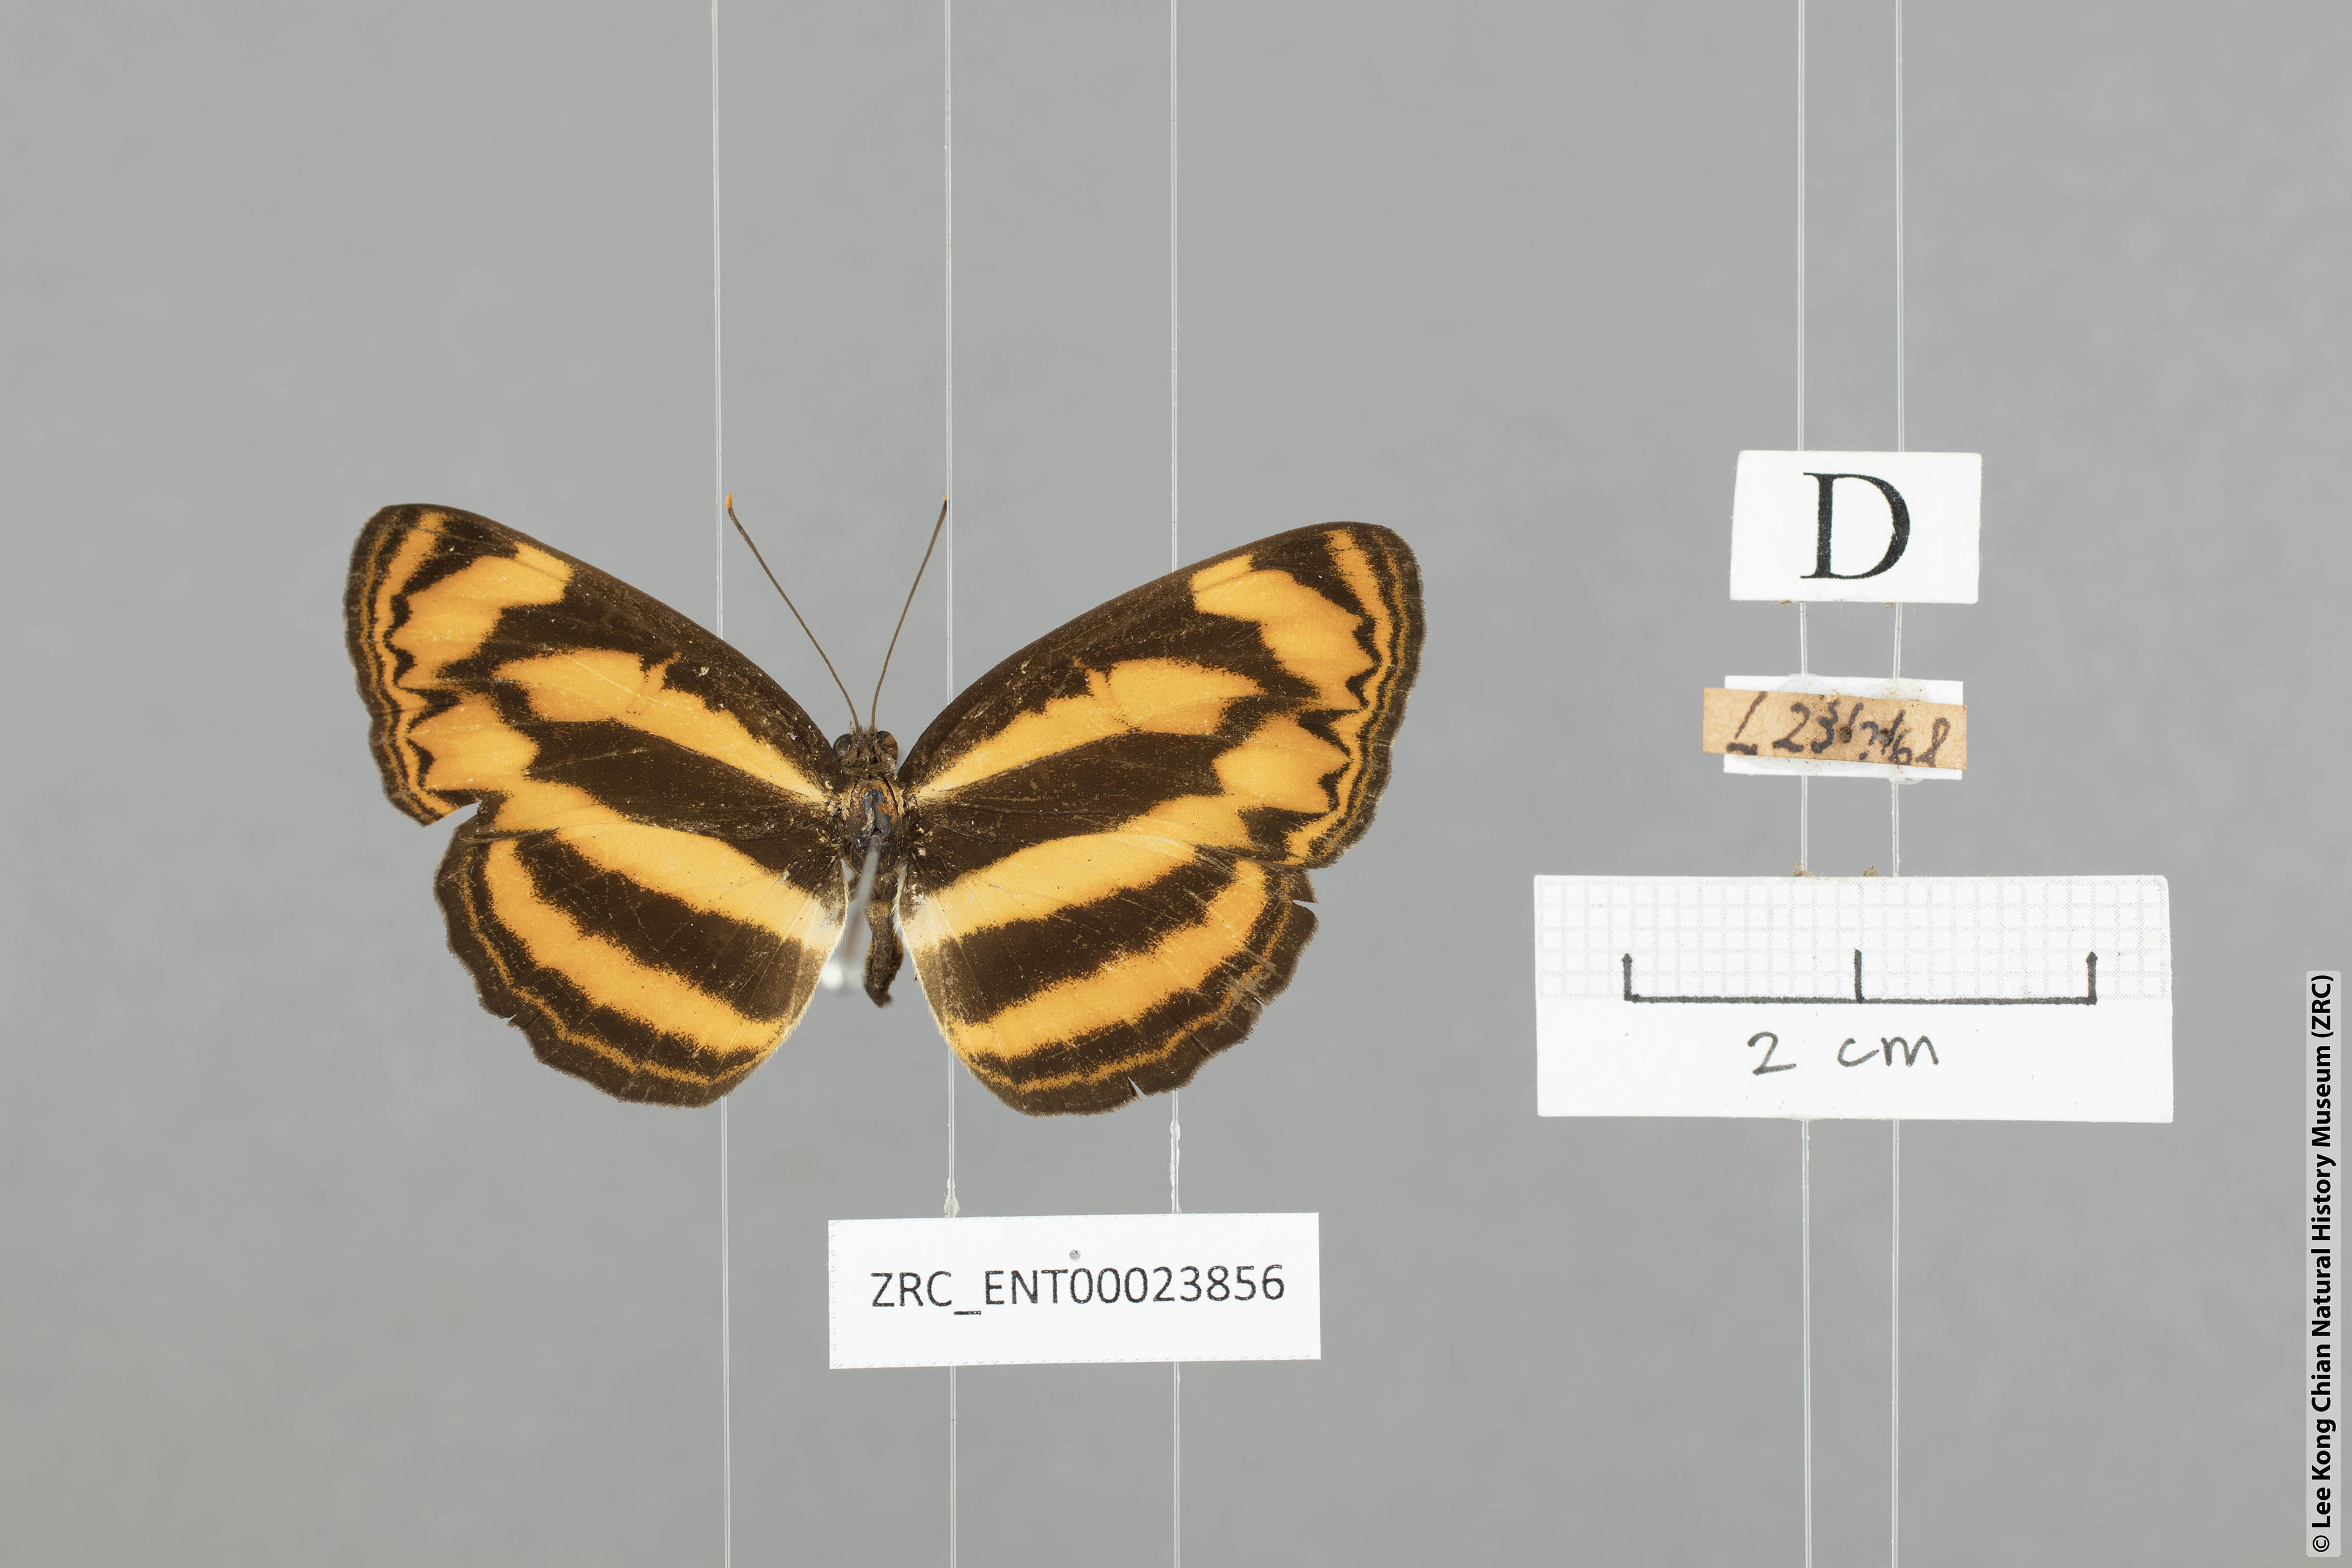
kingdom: Animalia
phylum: Arthropoda
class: Insecta
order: Lepidoptera
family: Nymphalidae
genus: Lasippa
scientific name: Lasippa tiga
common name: Malayan lascar
